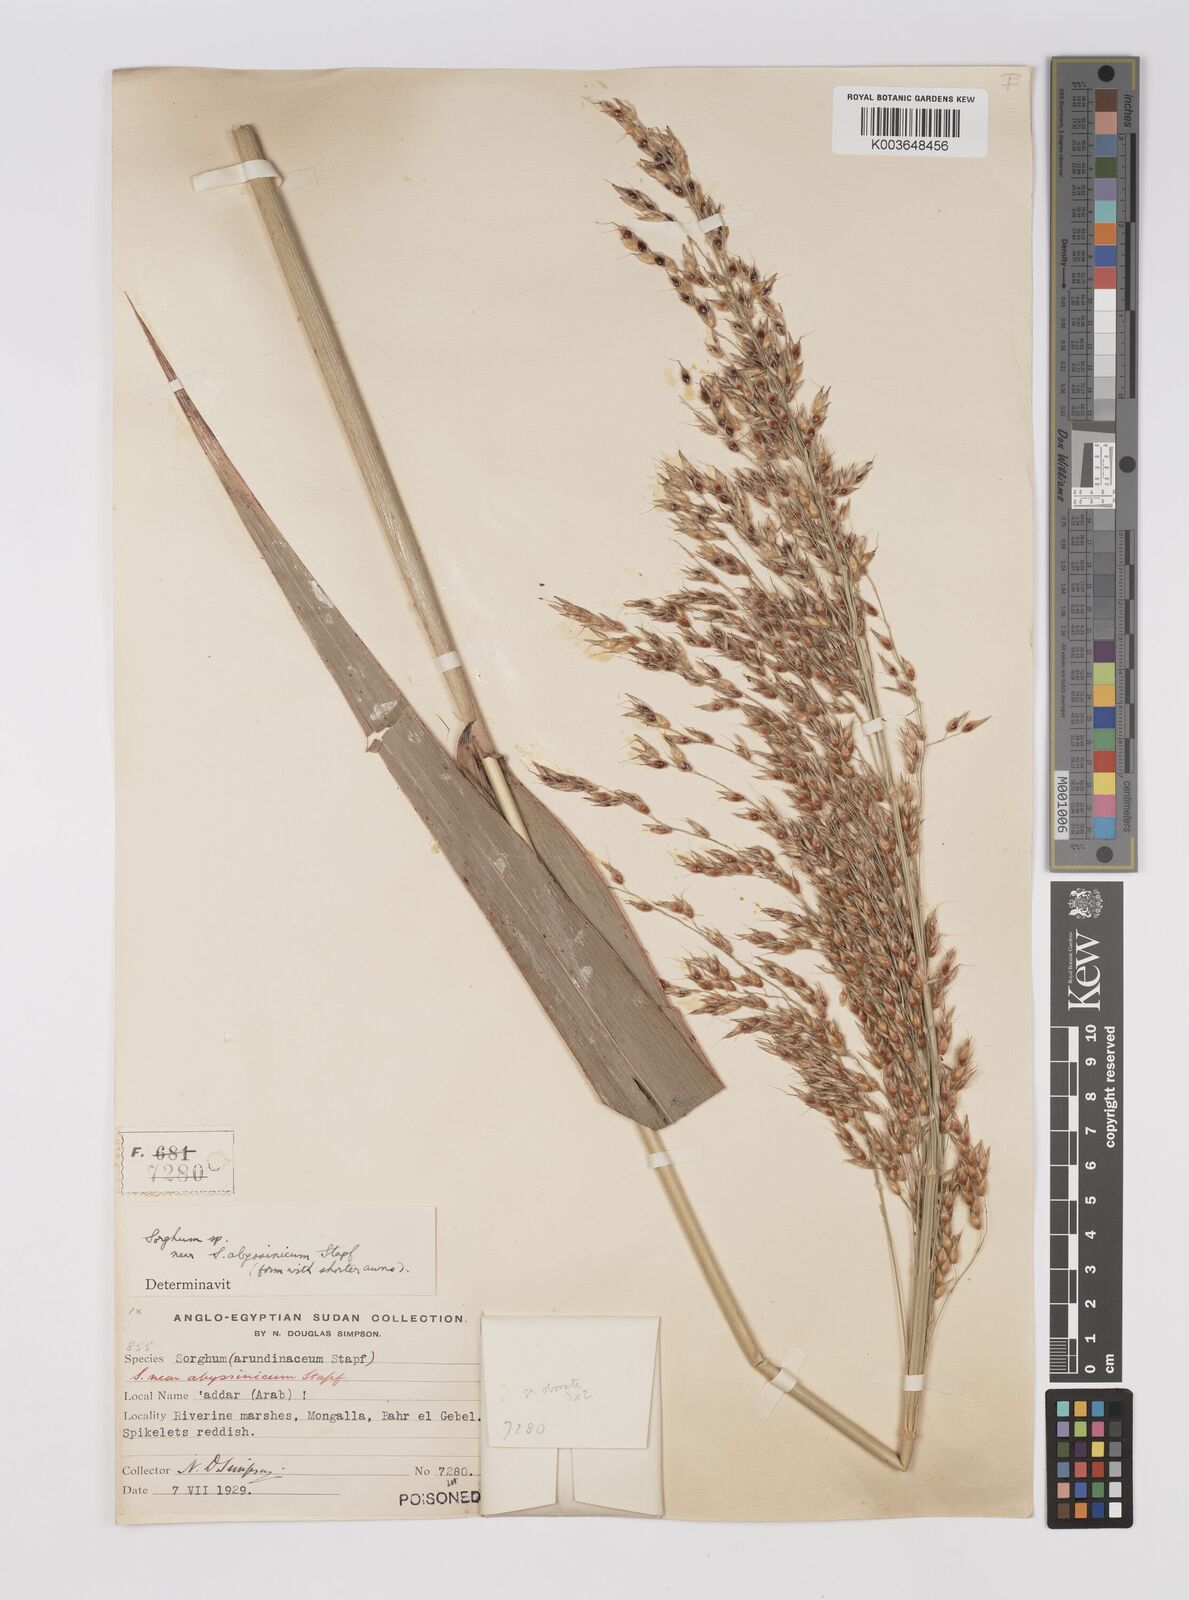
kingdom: Plantae
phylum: Tracheophyta
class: Liliopsida
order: Poales
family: Poaceae
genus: Sorghum
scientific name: Sorghum arundinaceum
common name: Sorghum
